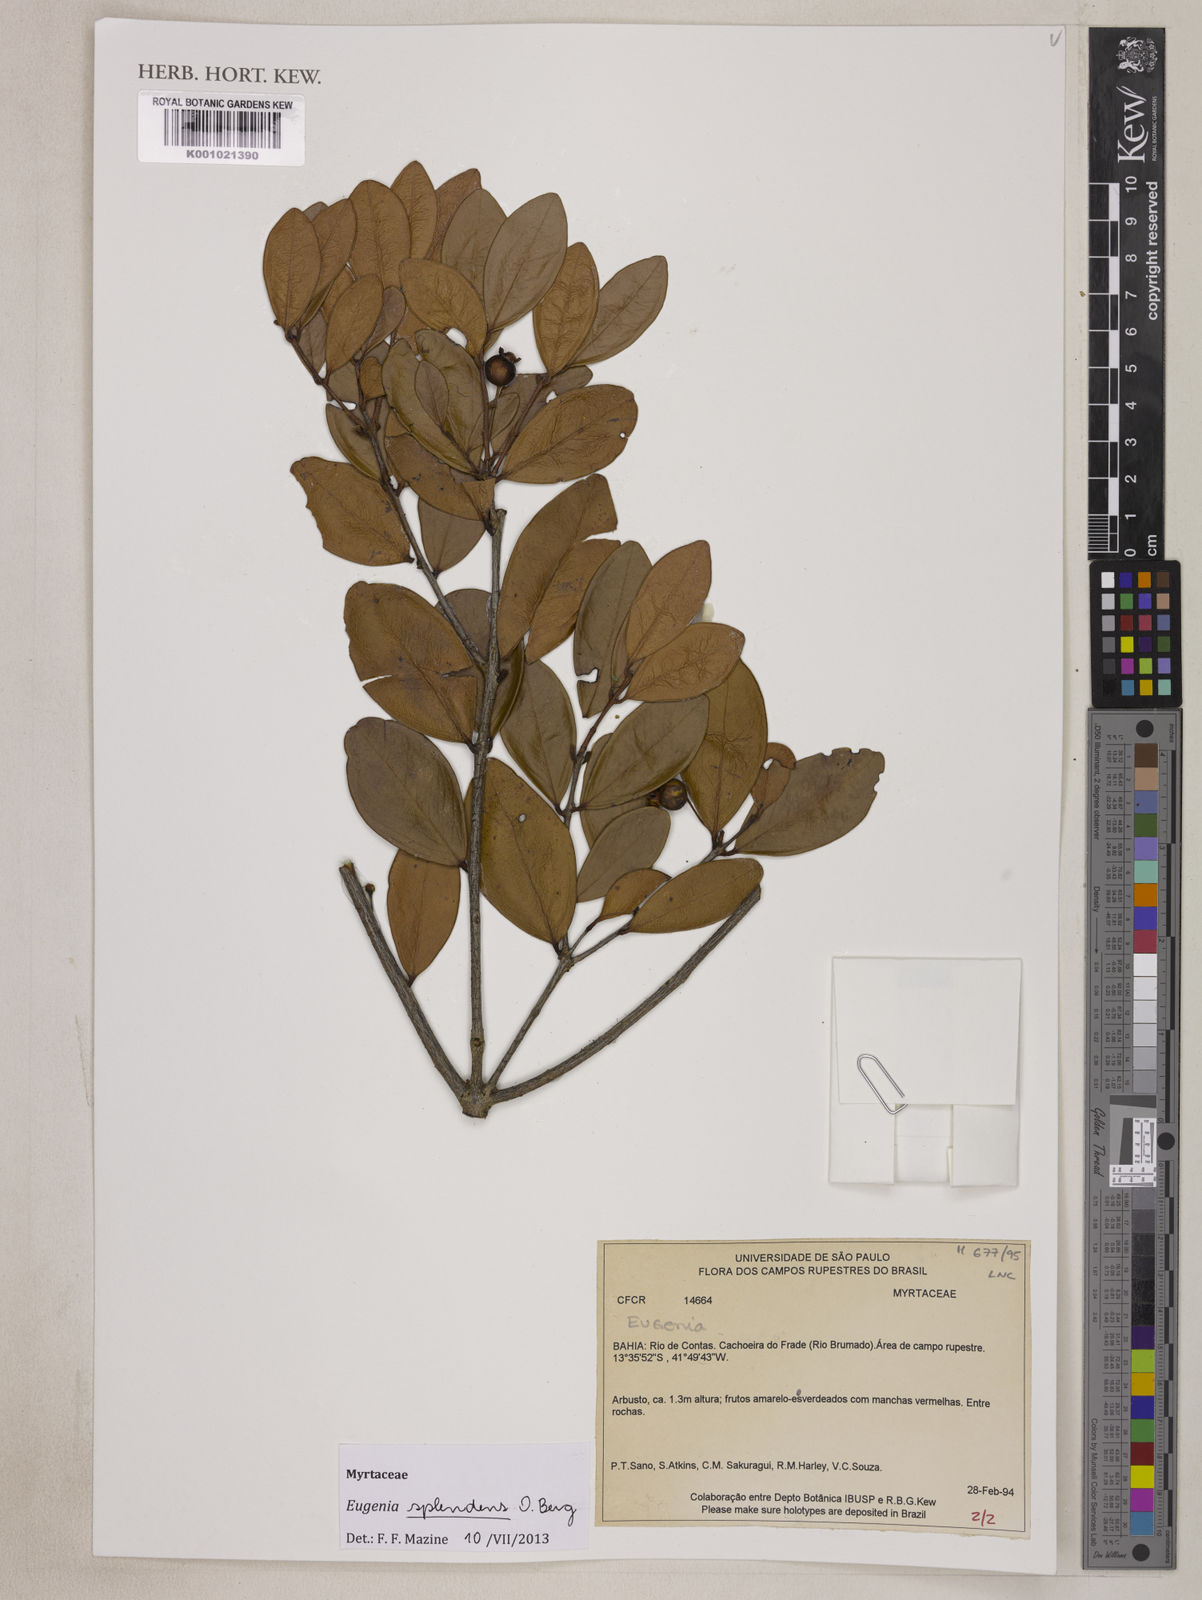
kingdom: Plantae
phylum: Tracheophyta
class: Magnoliopsida
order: Myrtales
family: Myrtaceae
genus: Eugenia
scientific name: Eugenia splendens
